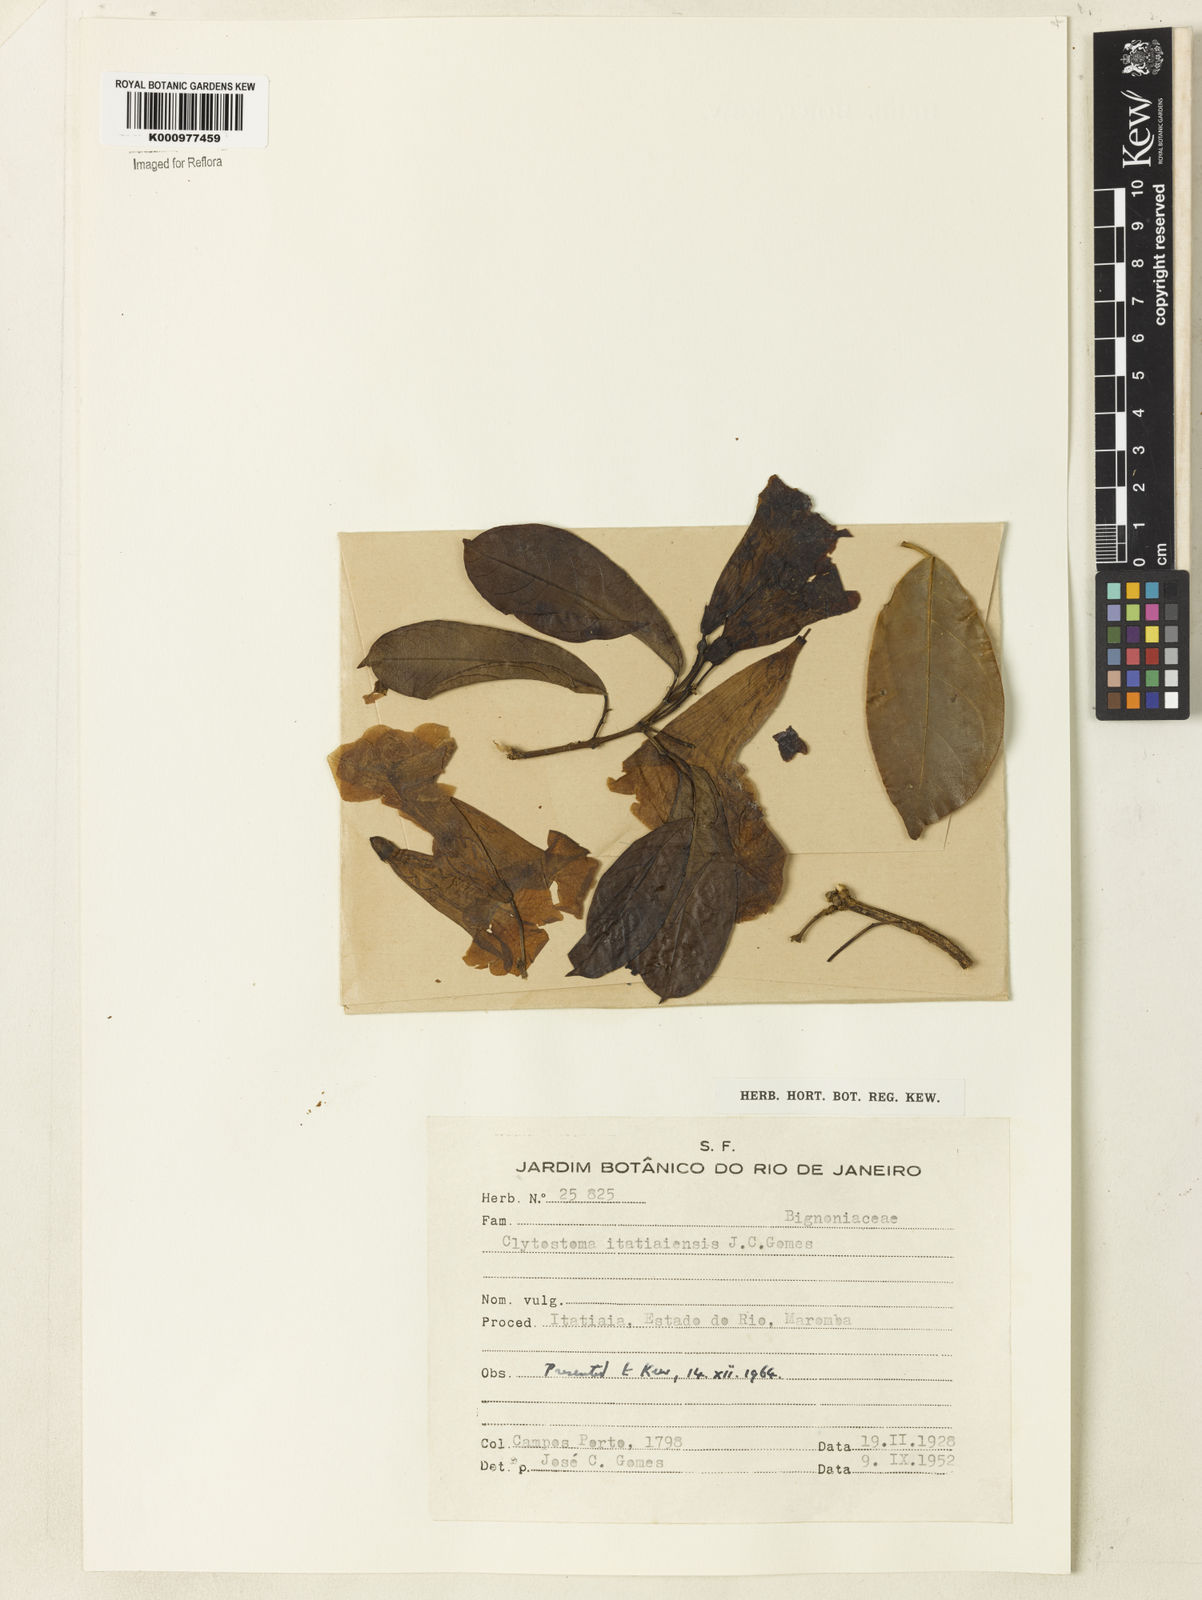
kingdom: Plantae
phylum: Tracheophyta
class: Magnoliopsida
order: Lamiales
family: Bignoniaceae
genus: Bignonia
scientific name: Bignonia
